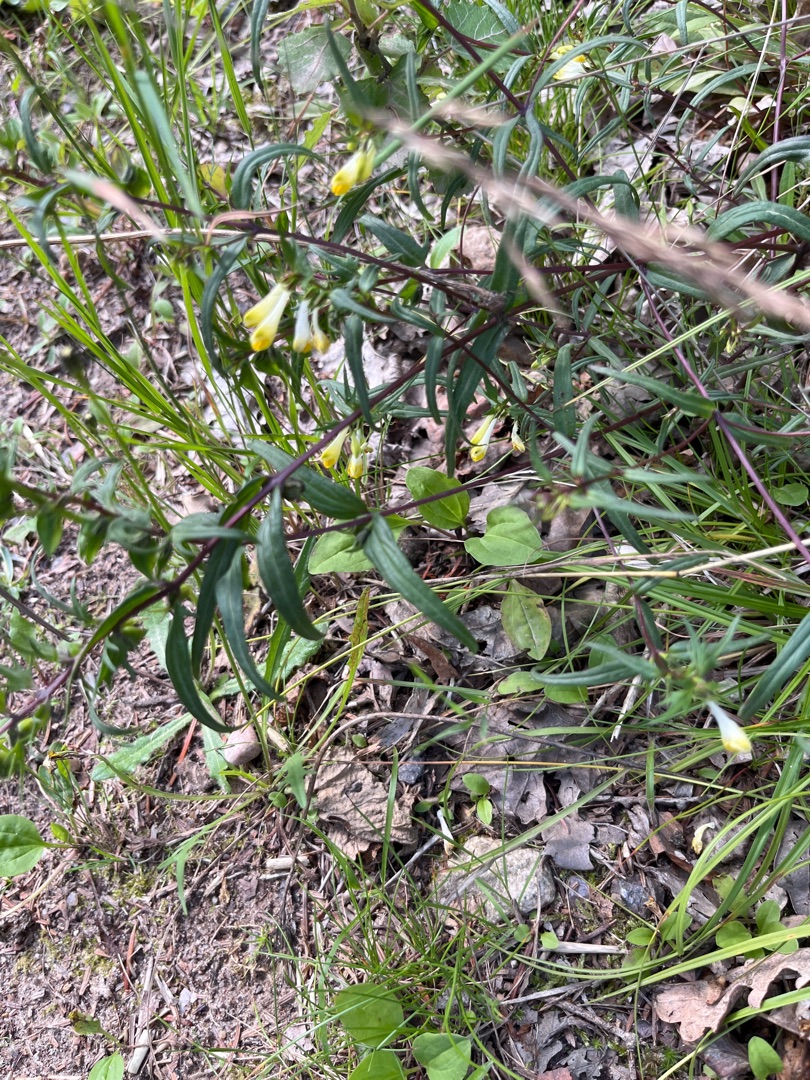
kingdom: Plantae
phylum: Tracheophyta
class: Magnoliopsida
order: Lamiales
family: Orobanchaceae
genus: Melampyrum
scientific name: Melampyrum pratense
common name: Almindelig kohvede
